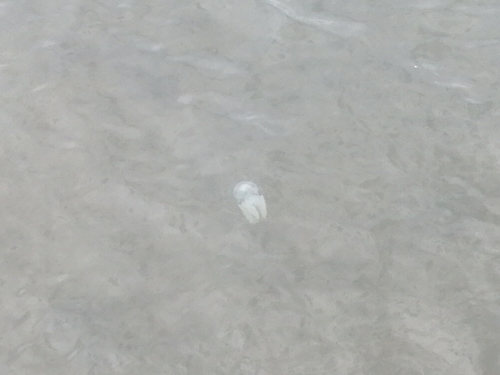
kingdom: Animalia
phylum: Cnidaria
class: Scyphozoa
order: Rhizostomeae
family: Catostylidae
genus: Acromitus
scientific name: Acromitus flagellatus
